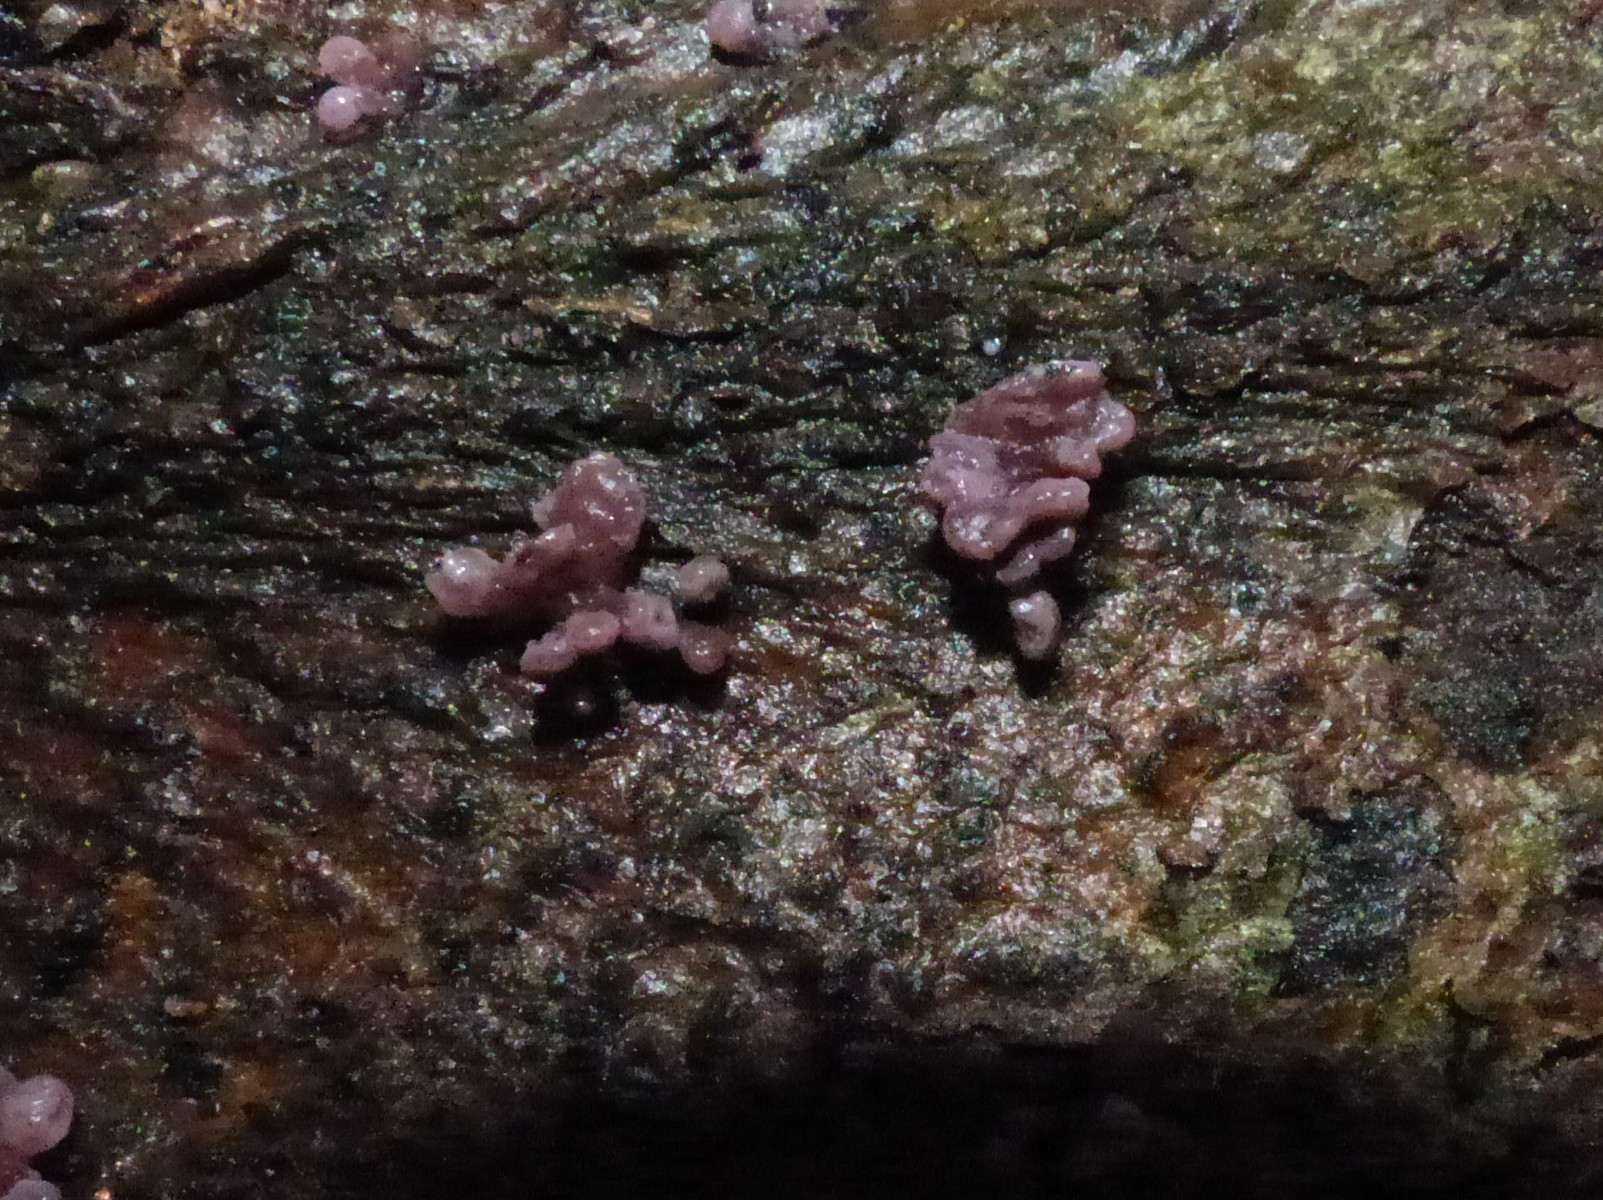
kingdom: Fungi
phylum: Ascomycota
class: Leotiomycetes
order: Helotiales
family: Gelatinodiscaceae
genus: Ascocoryne
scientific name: Ascocoryne sarcoides
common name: rødlilla sejskive
